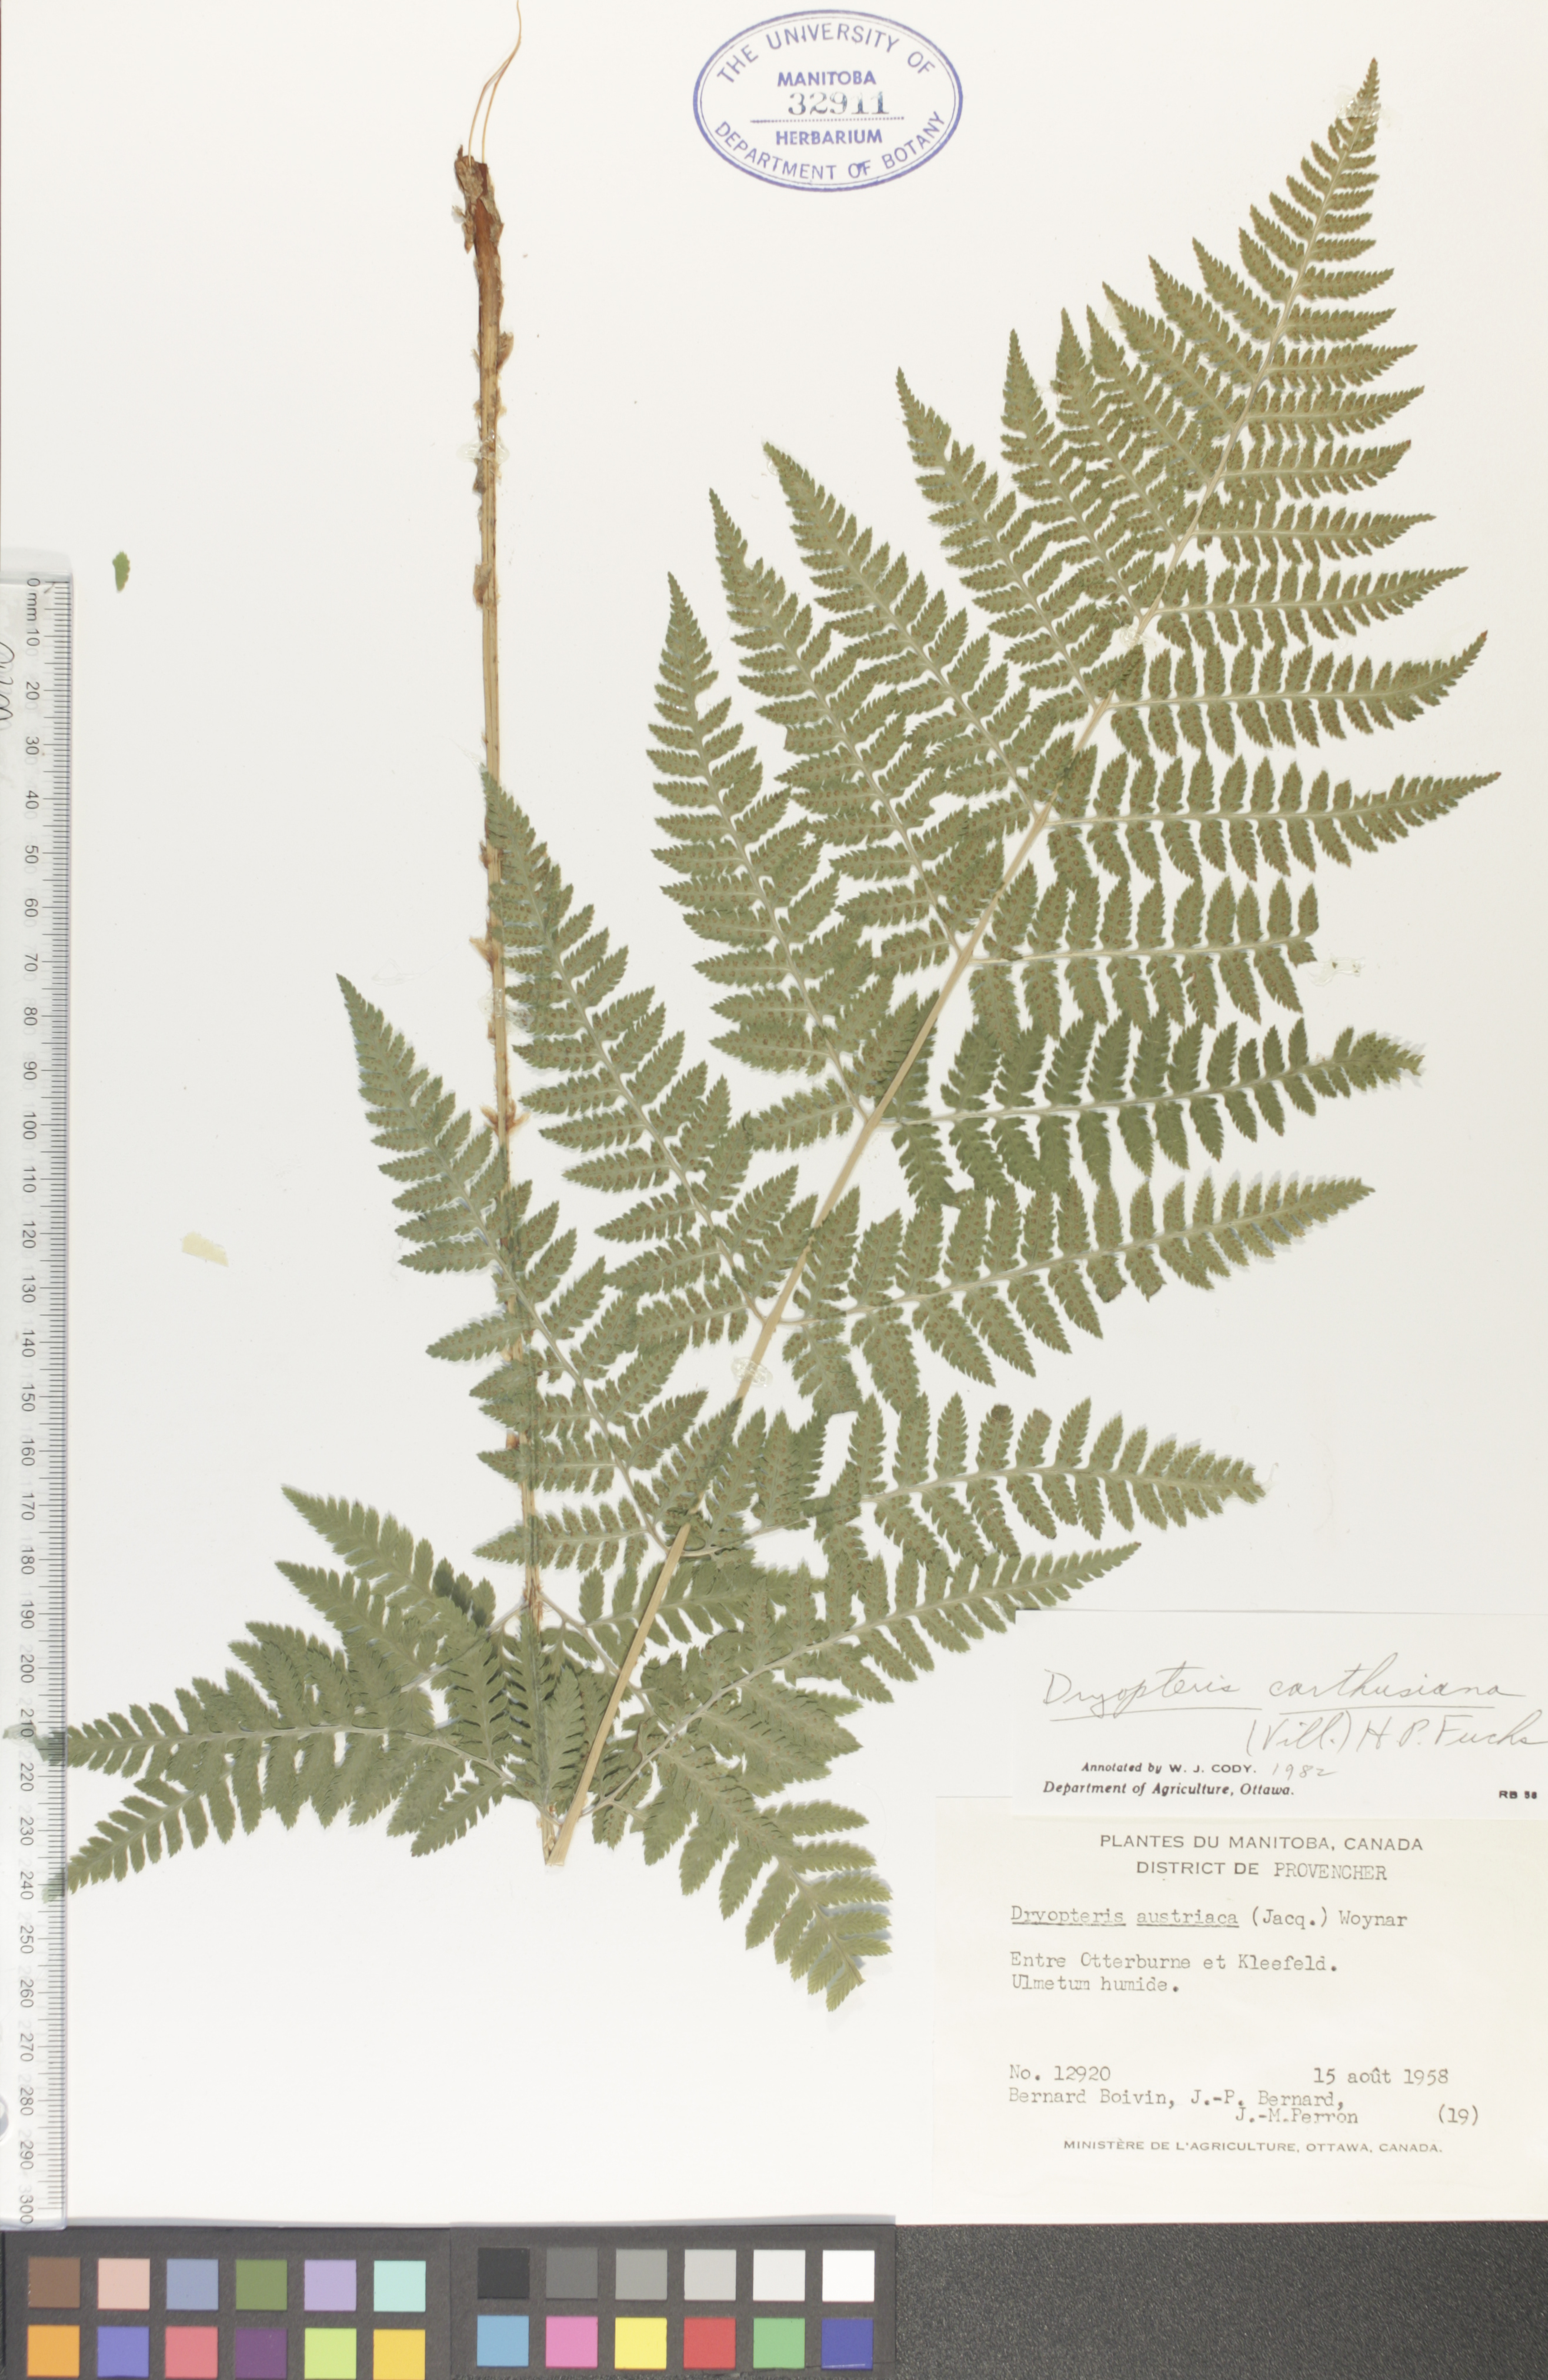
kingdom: Plantae
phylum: Tracheophyta
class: Polypodiopsida
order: Polypodiales
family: Dryopteridaceae
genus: Dryopteris
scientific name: Dryopteris carthusiana
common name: Narrow buckler-fern
